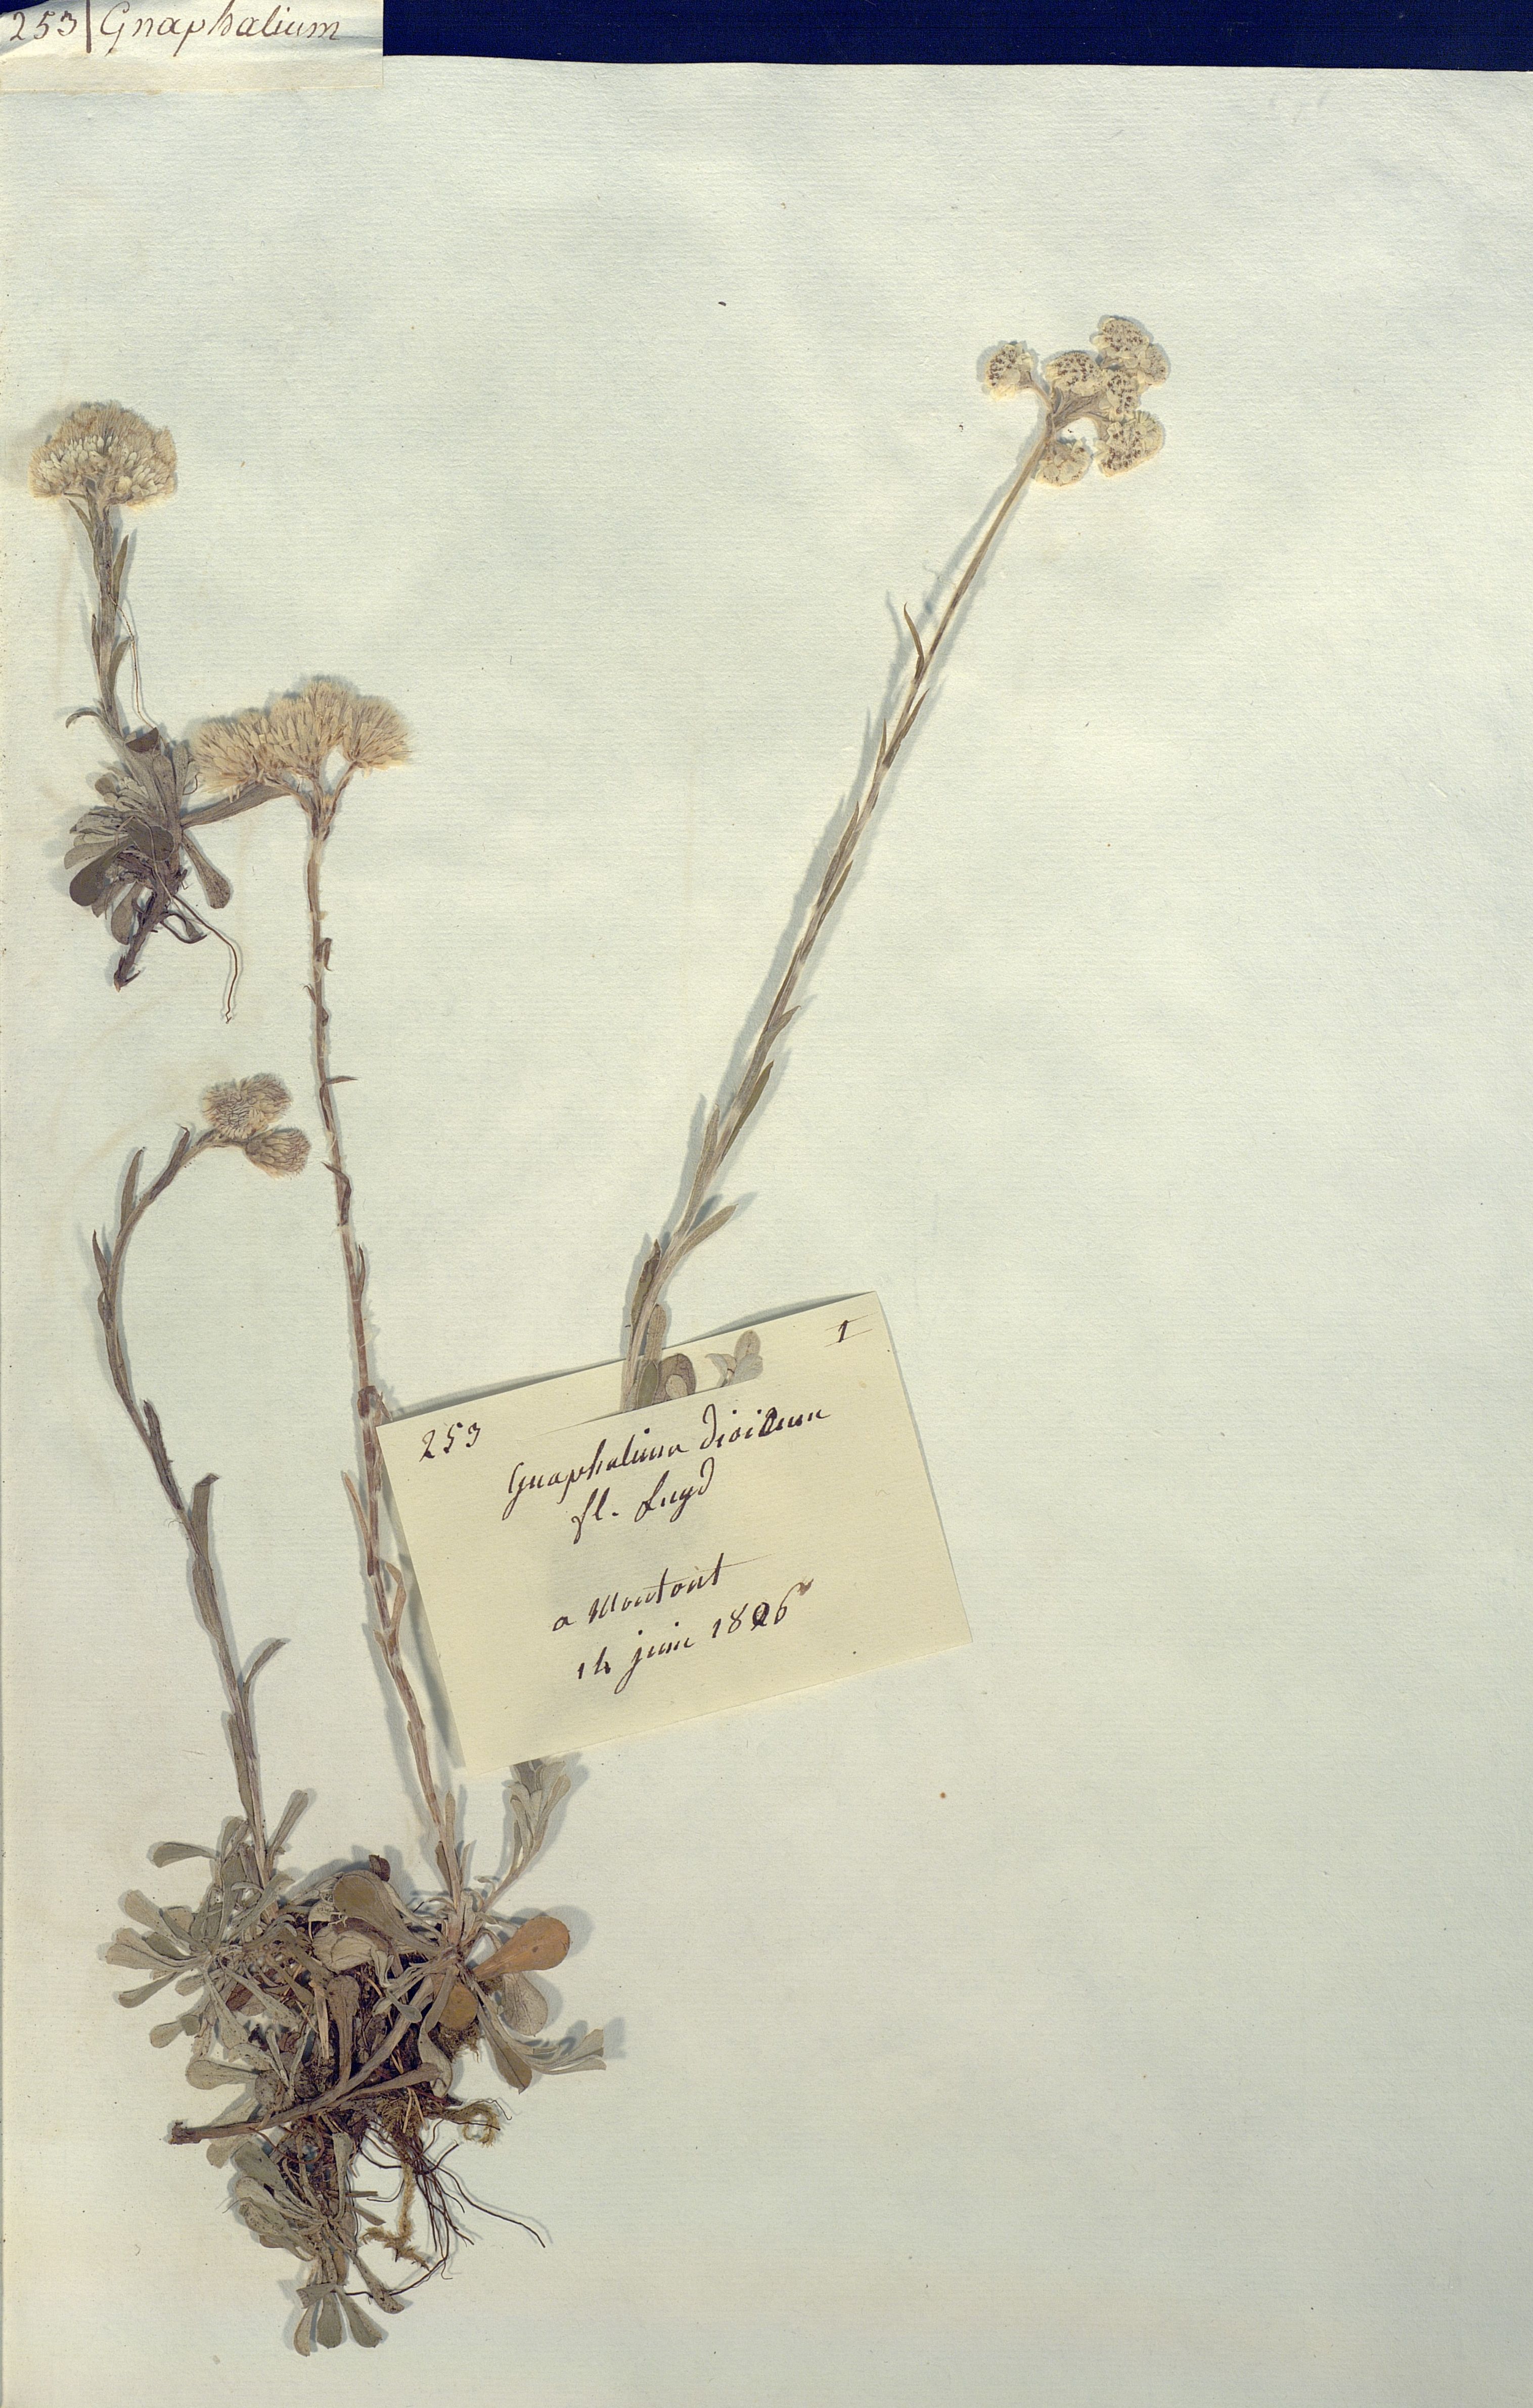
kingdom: Plantae
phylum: Tracheophyta
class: Magnoliopsida
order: Asterales
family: Asteraceae
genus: Antennaria
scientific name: Antennaria dioica
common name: Mountain everlasting
